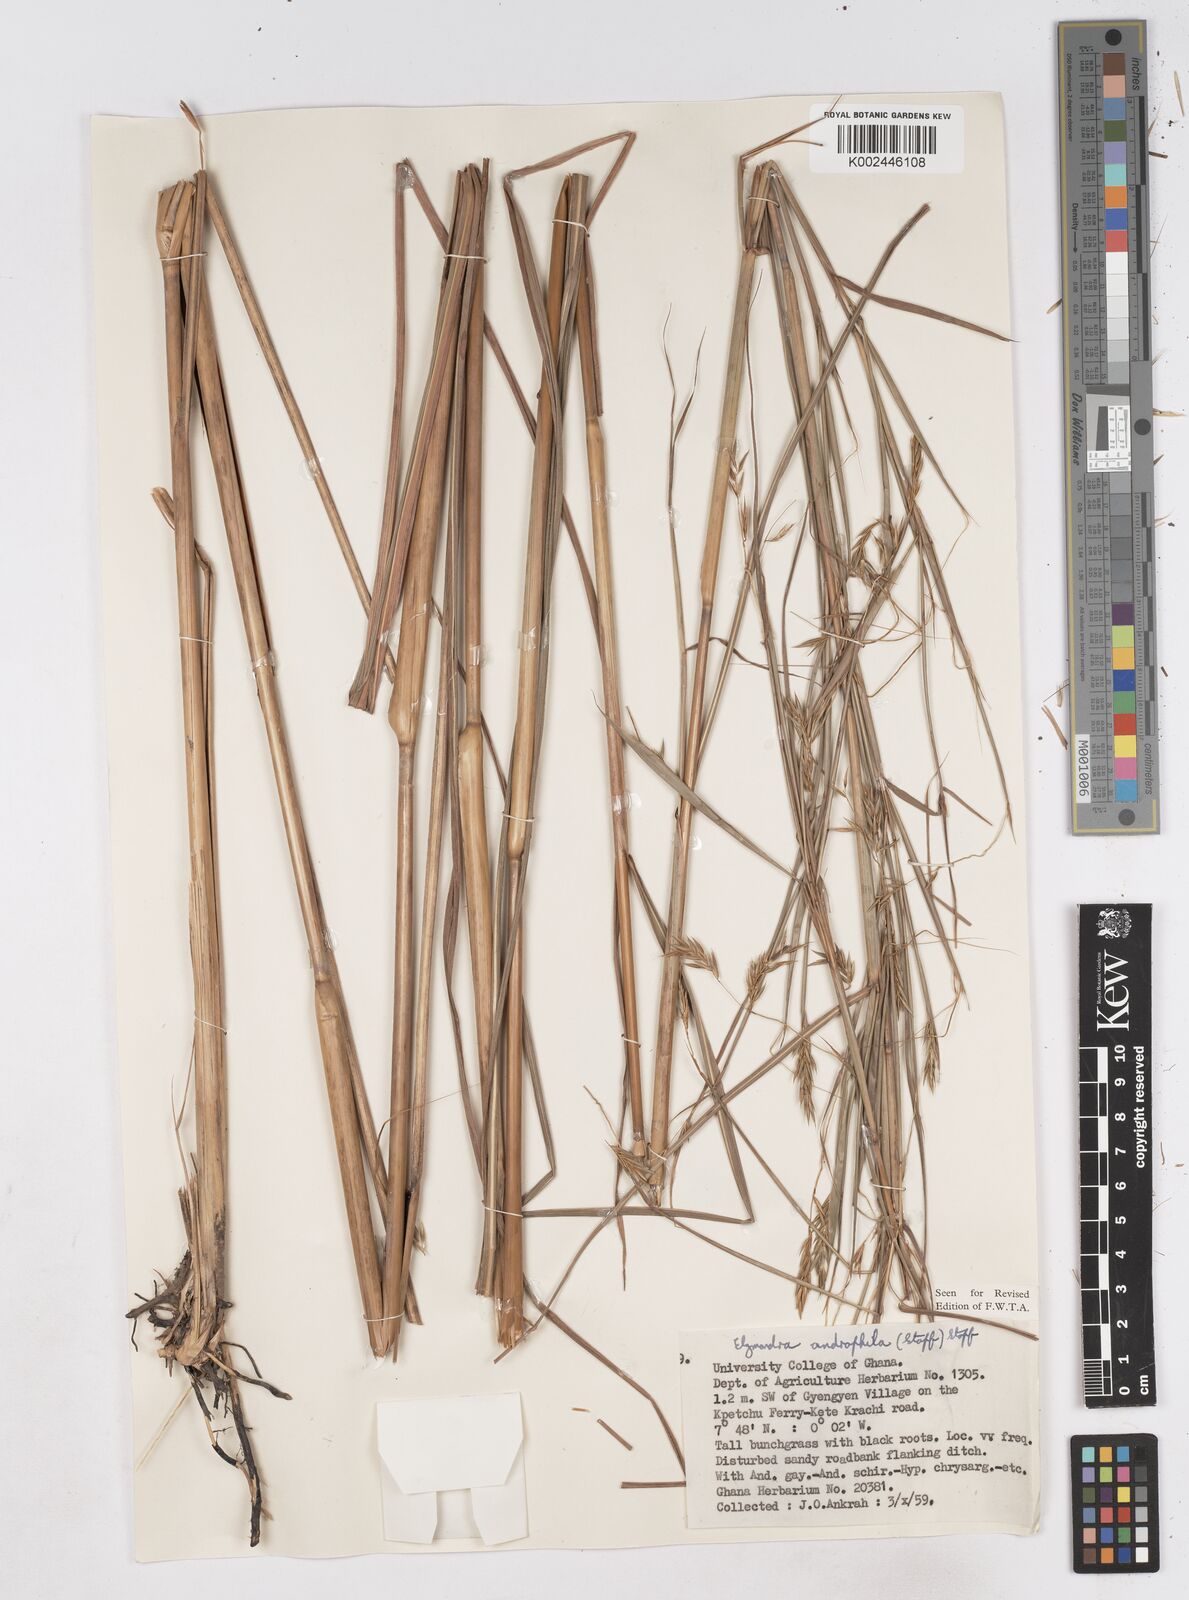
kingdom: Plantae
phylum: Tracheophyta
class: Liliopsida
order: Poales
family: Poaceae
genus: Elymandra
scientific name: Elymandra androphila
